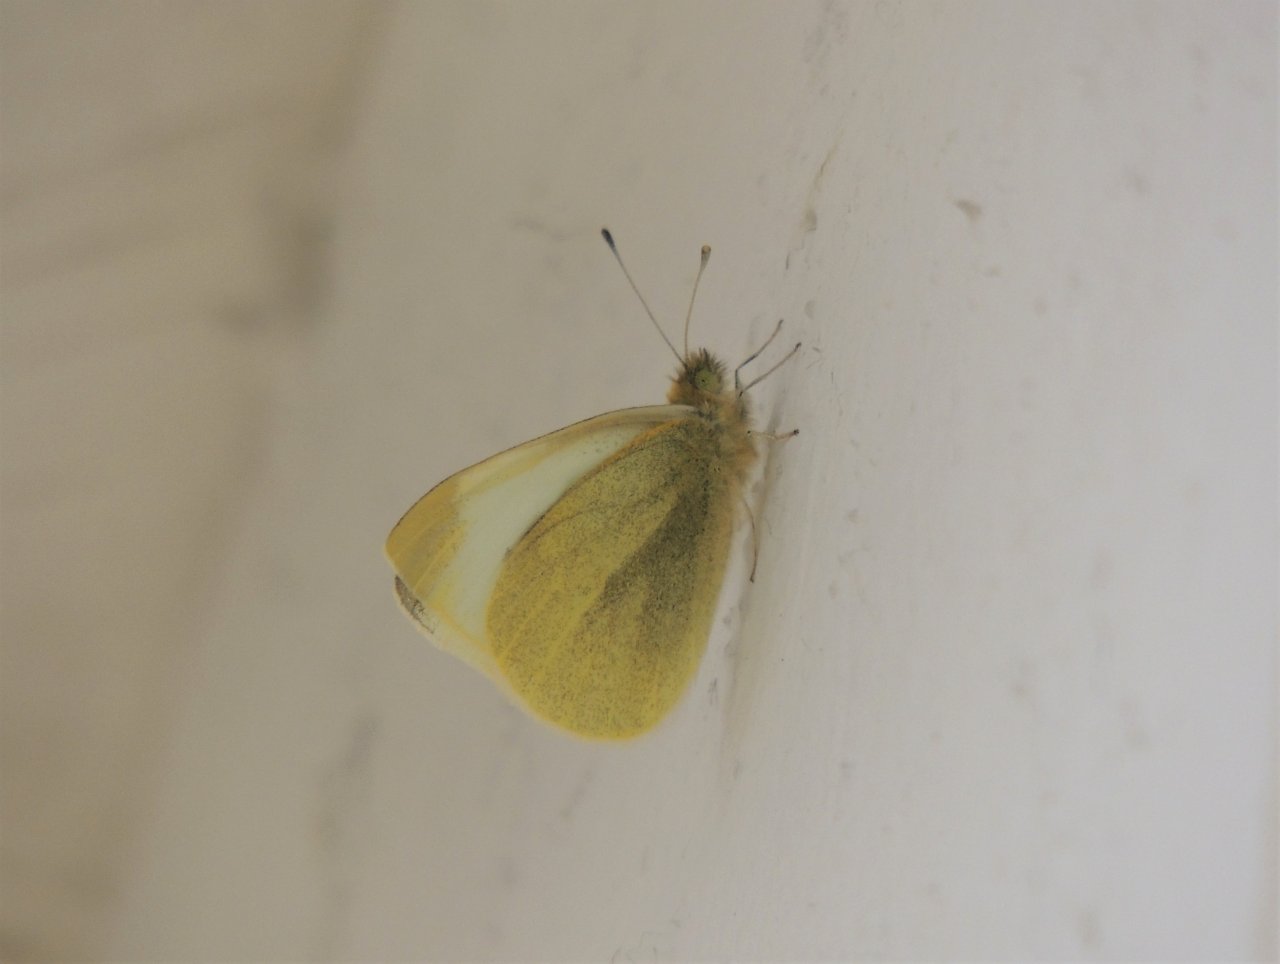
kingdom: Animalia
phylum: Arthropoda
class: Insecta
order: Lepidoptera
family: Pieridae
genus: Pieris
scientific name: Pieris rapae
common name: Cabbage White
